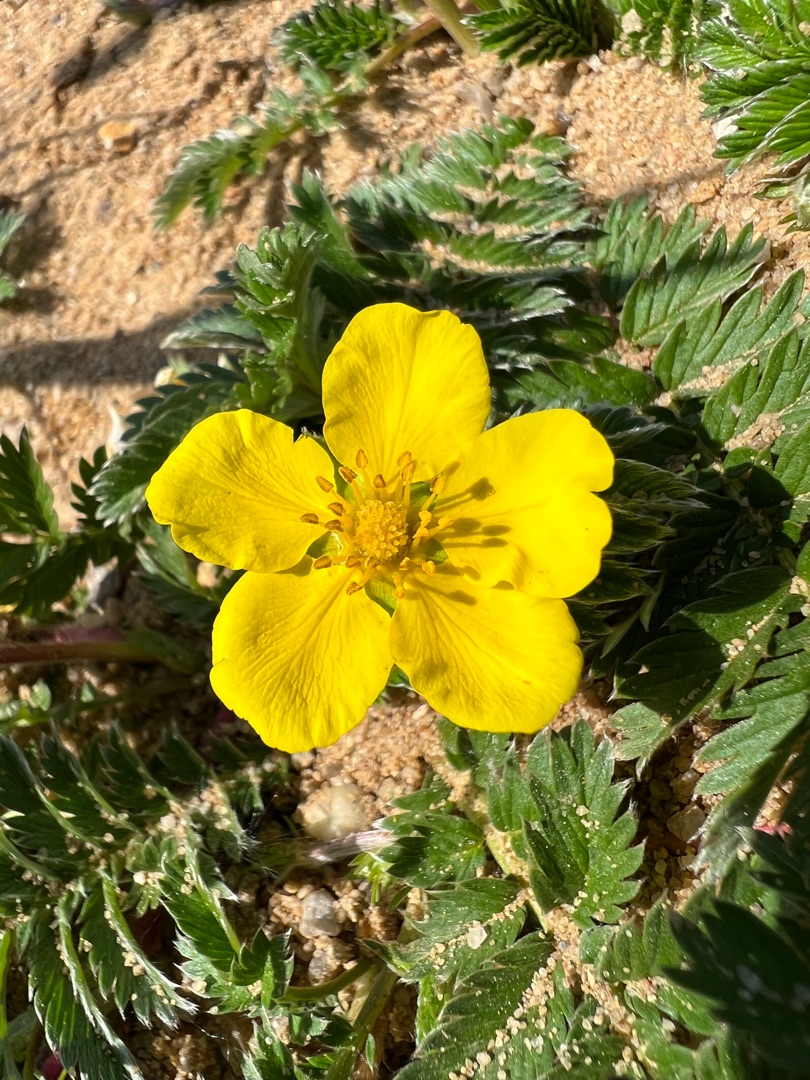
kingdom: Plantae
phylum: Tracheophyta
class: Magnoliopsida
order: Rosales
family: Rosaceae
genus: Argentina
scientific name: Argentina anserina
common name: Gåsepotentil
